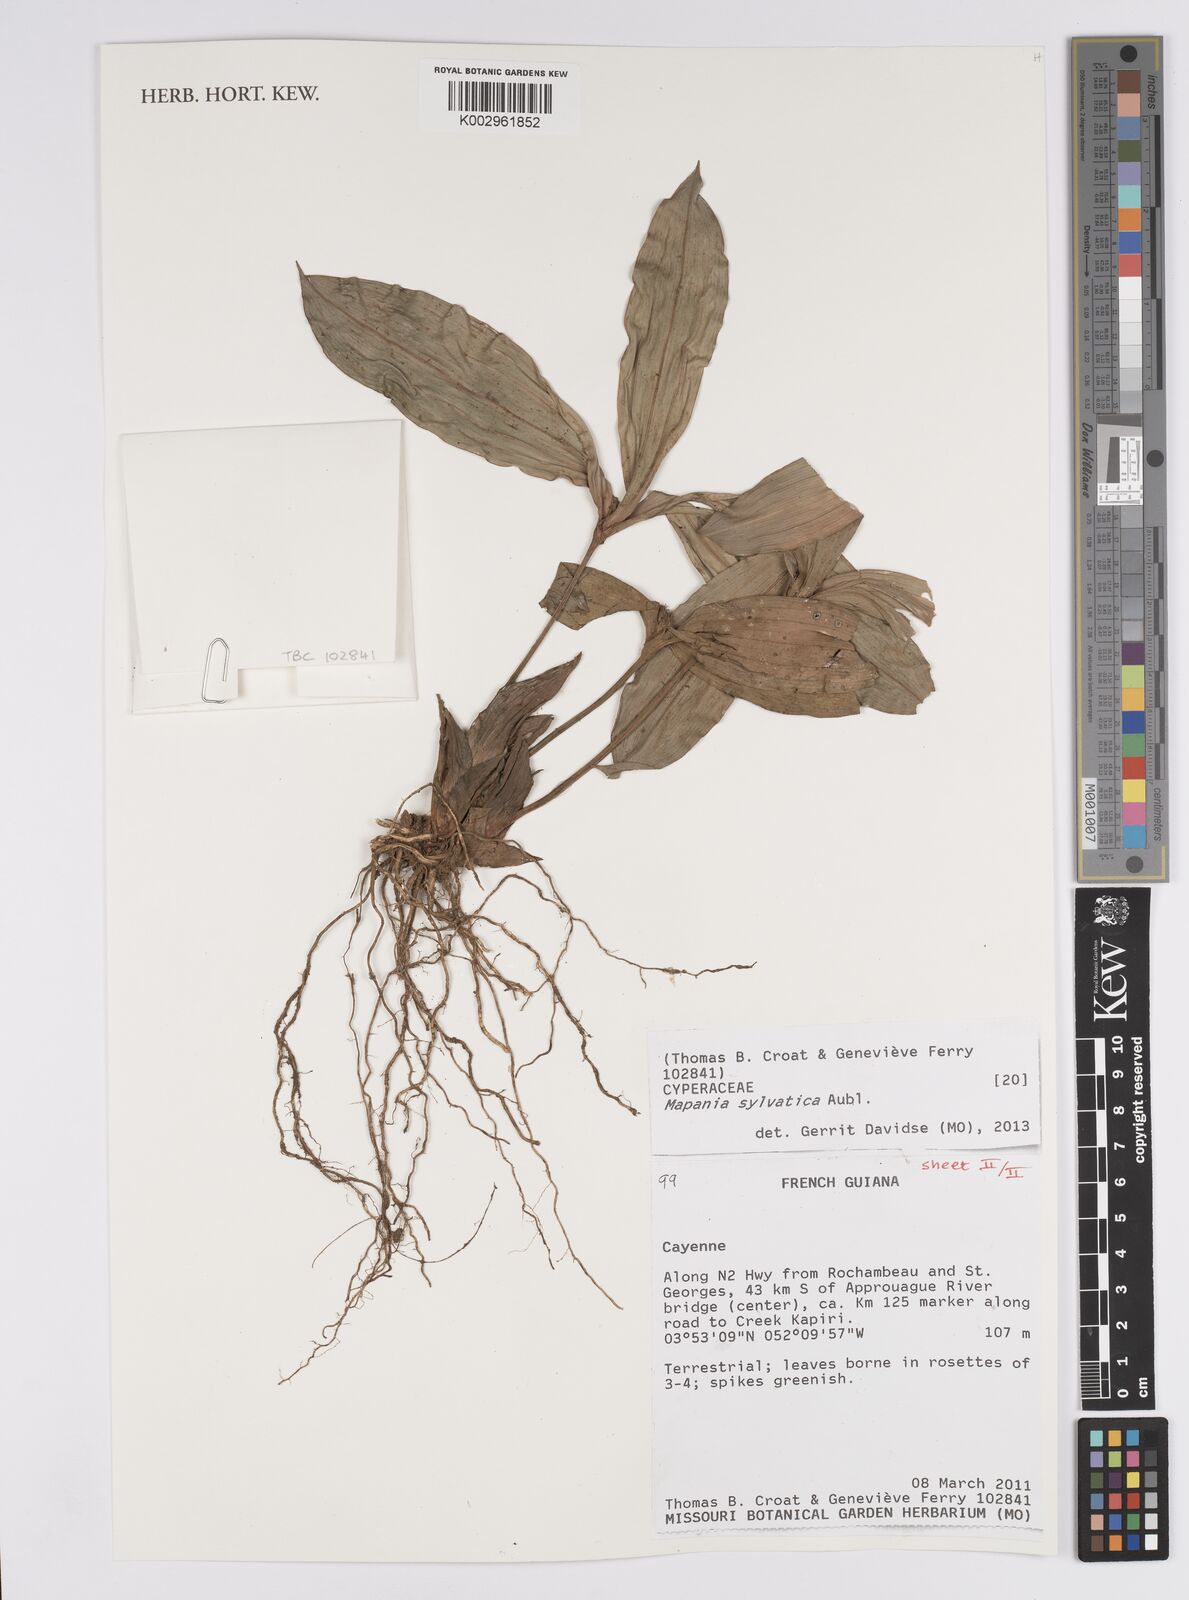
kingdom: Plantae
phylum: Tracheophyta
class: Liliopsida
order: Poales
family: Cyperaceae
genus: Mapania
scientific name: Mapania sylvatica
